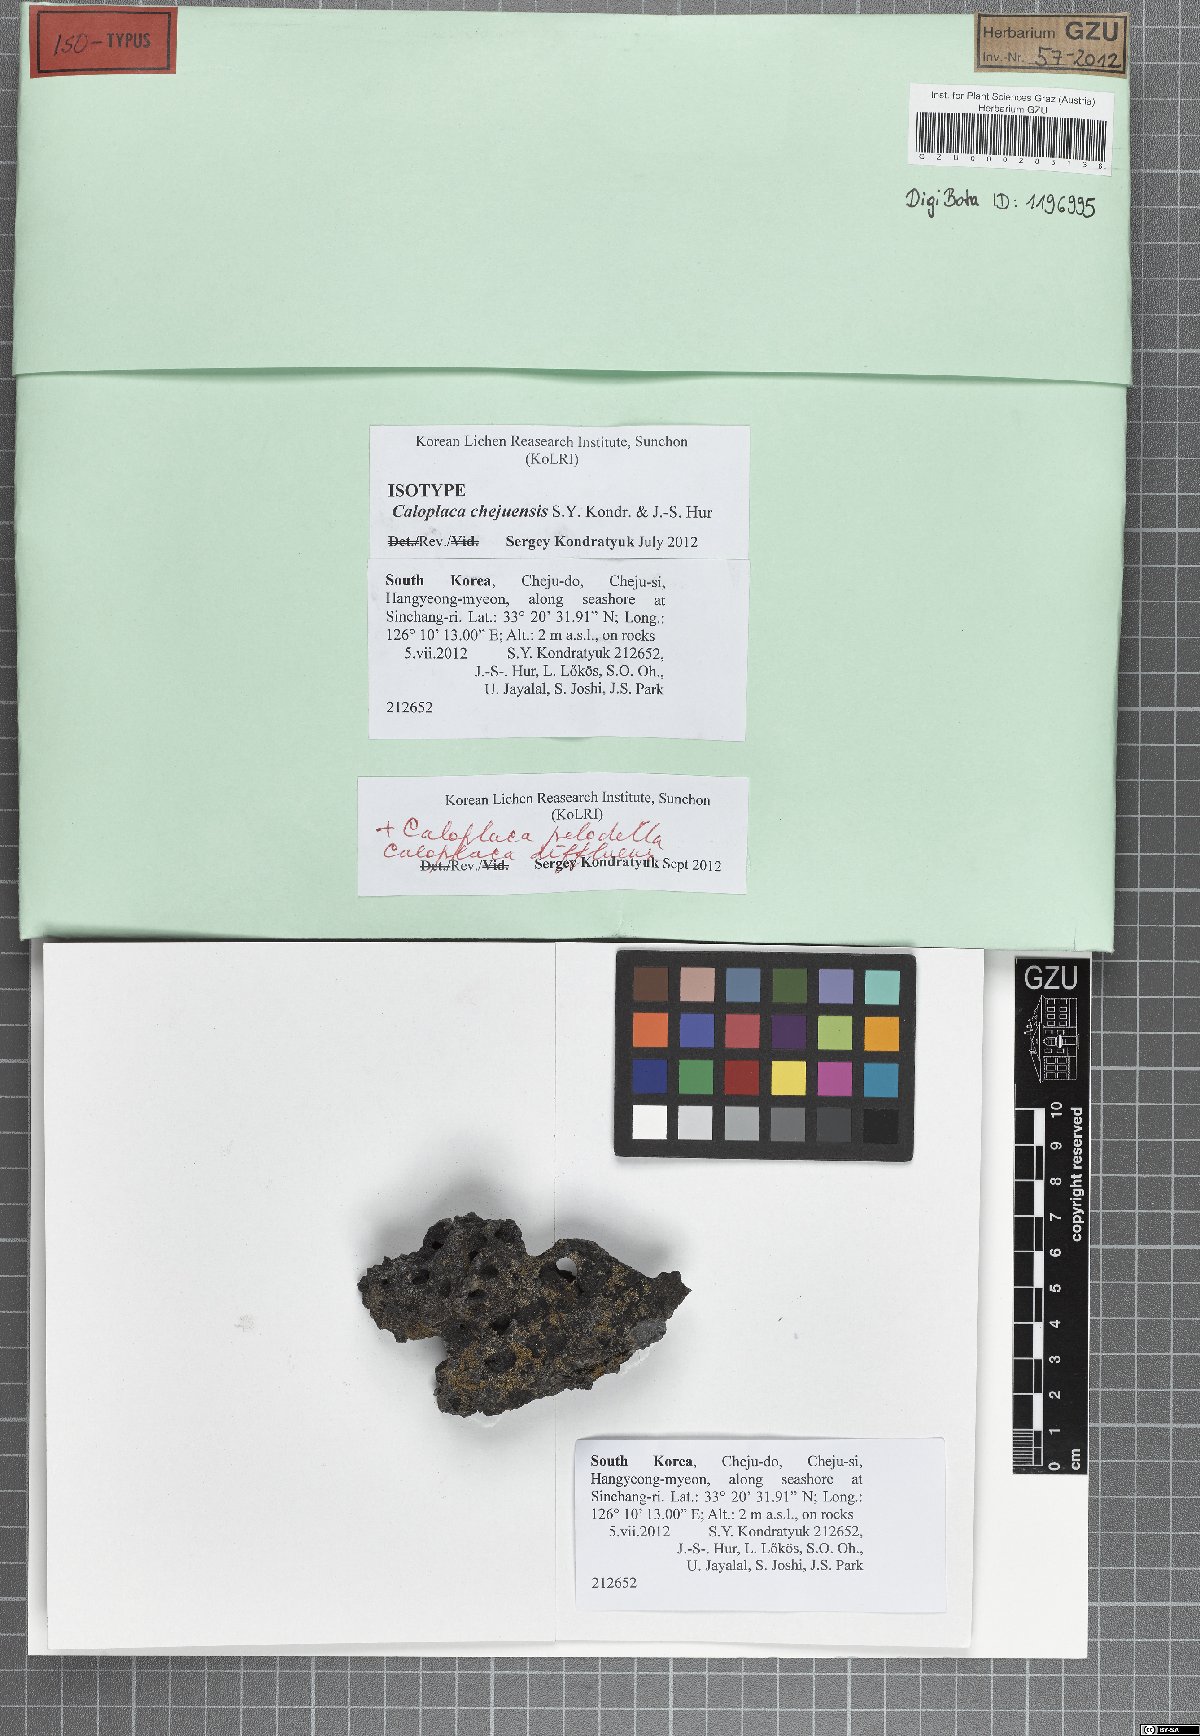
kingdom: Fungi
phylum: Ascomycota
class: Lecanoromycetes
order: Teloschistales
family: Teloschistaceae
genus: Orientophila
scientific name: Orientophila chejuensis
